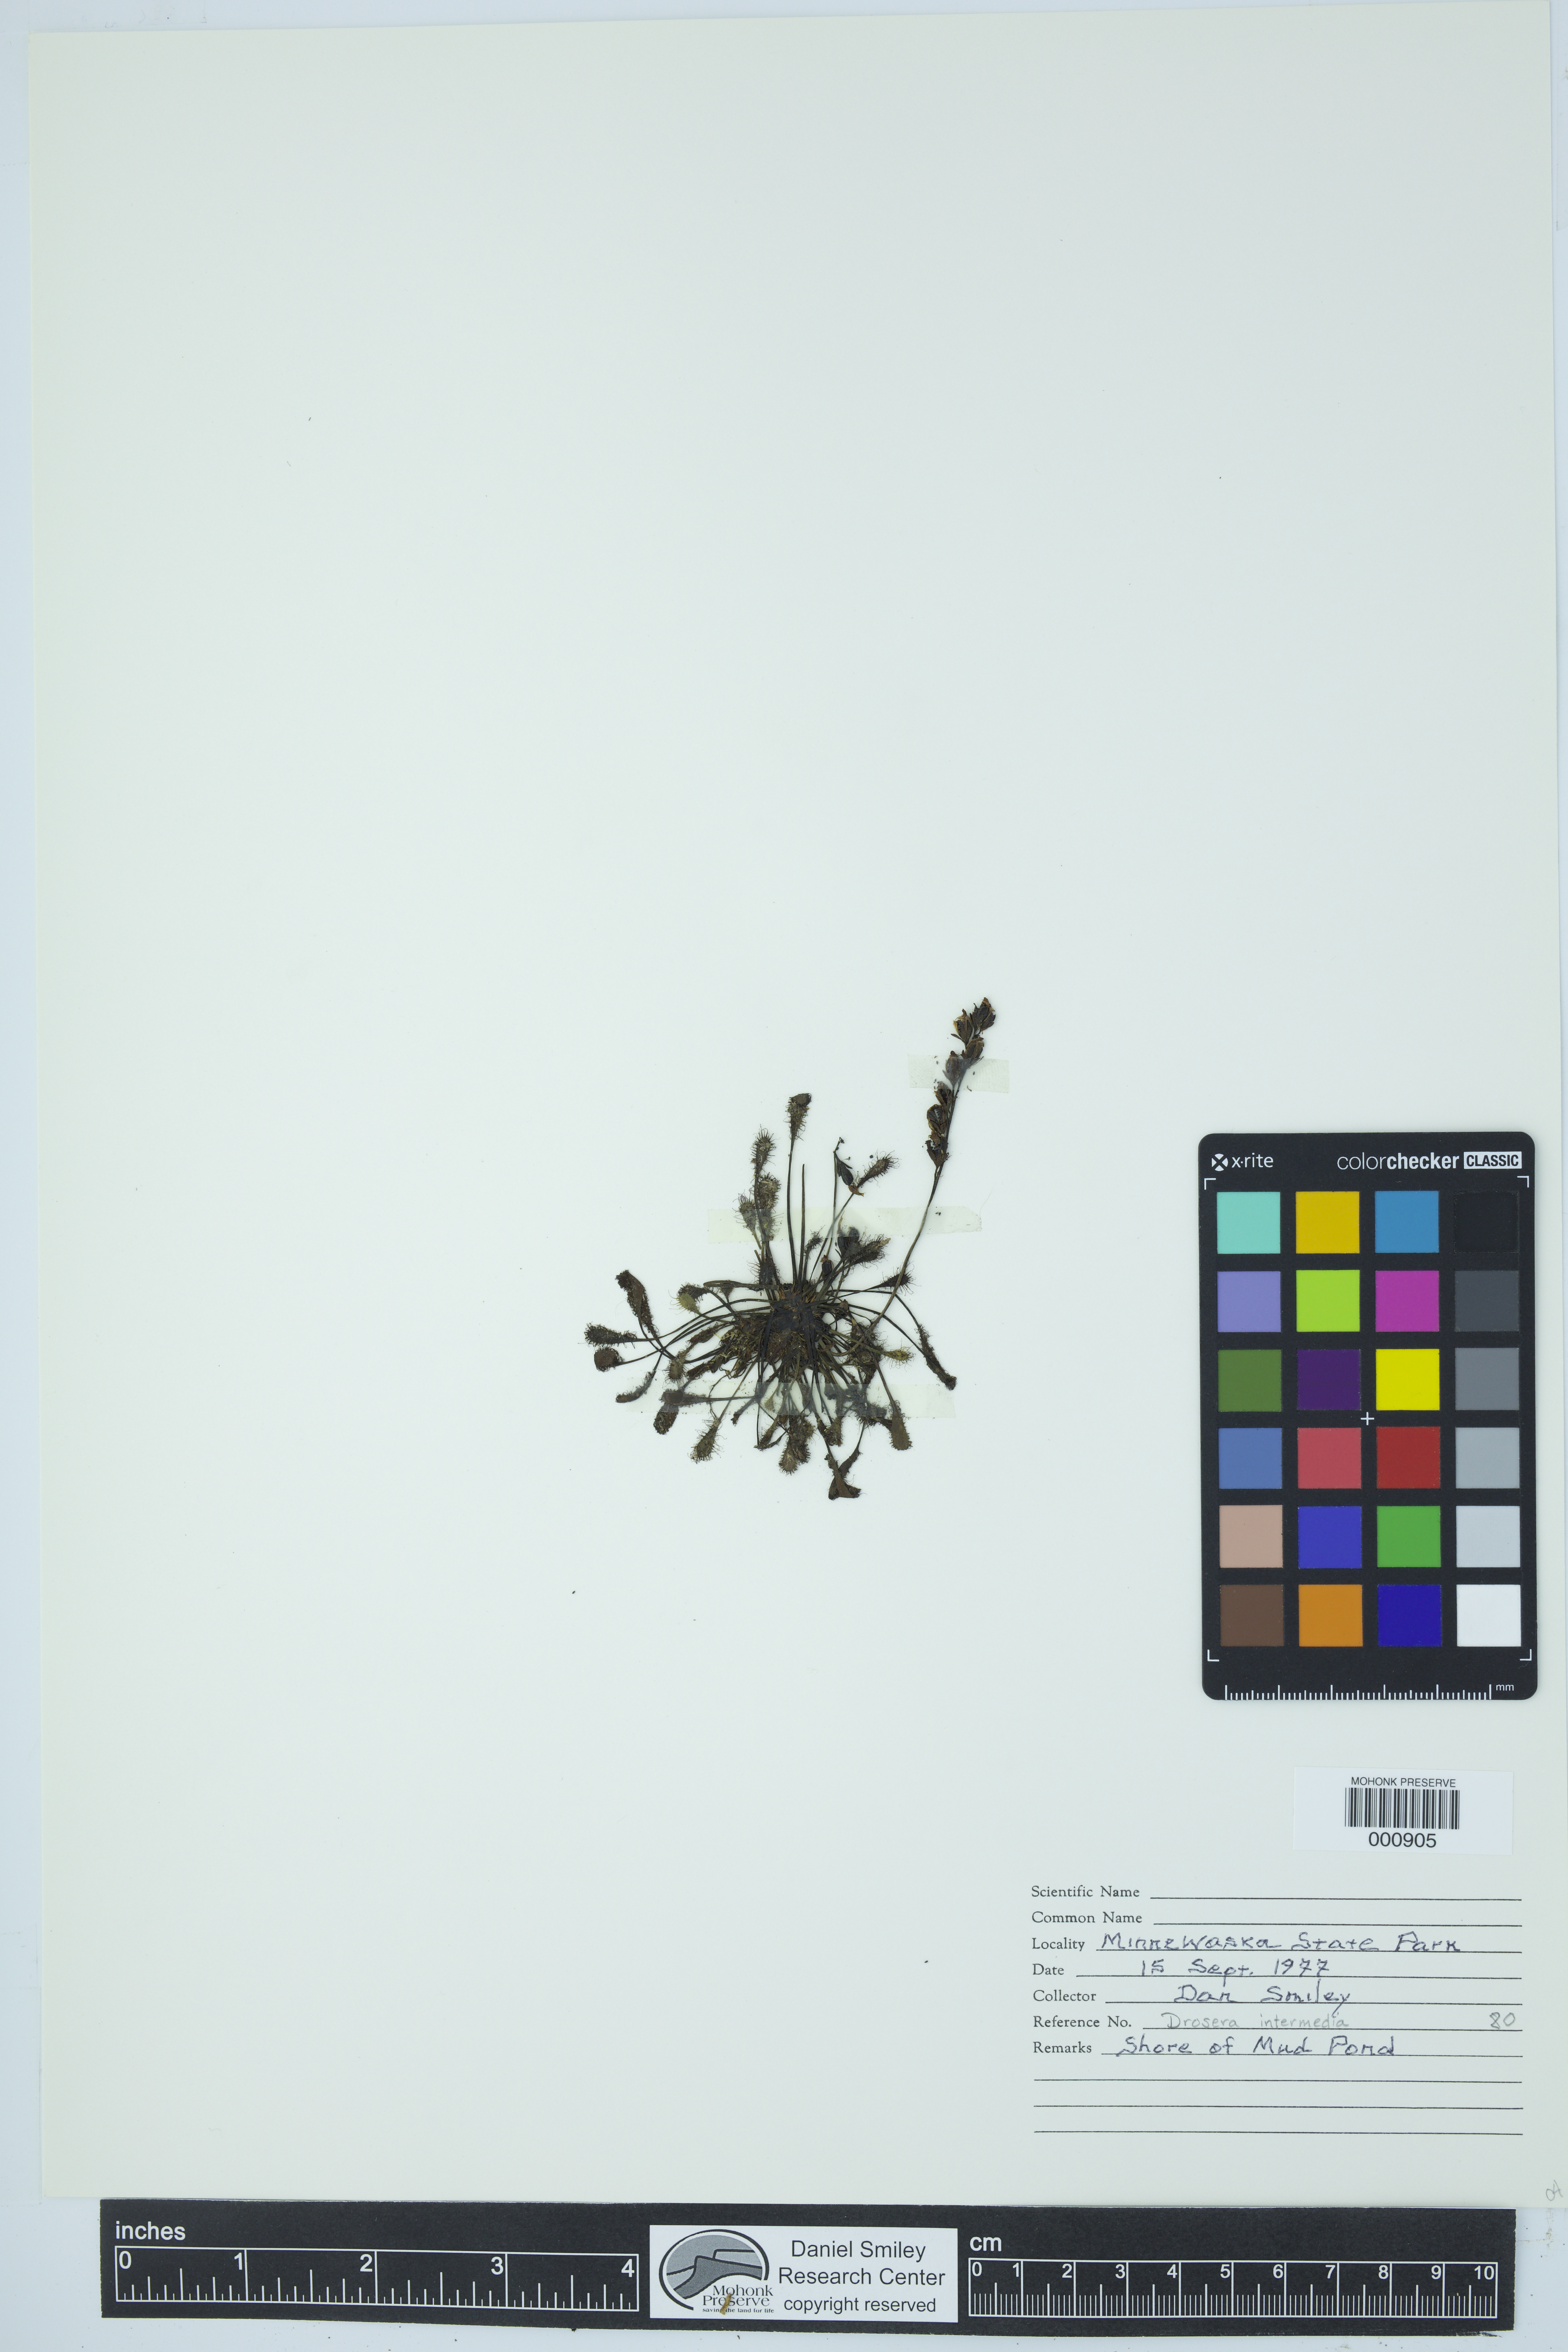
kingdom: Plantae
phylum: Tracheophyta
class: Magnoliopsida
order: Caryophyllales
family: Droseraceae
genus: Drosera
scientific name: Drosera intermedia
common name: Oblong-leaved sundew
